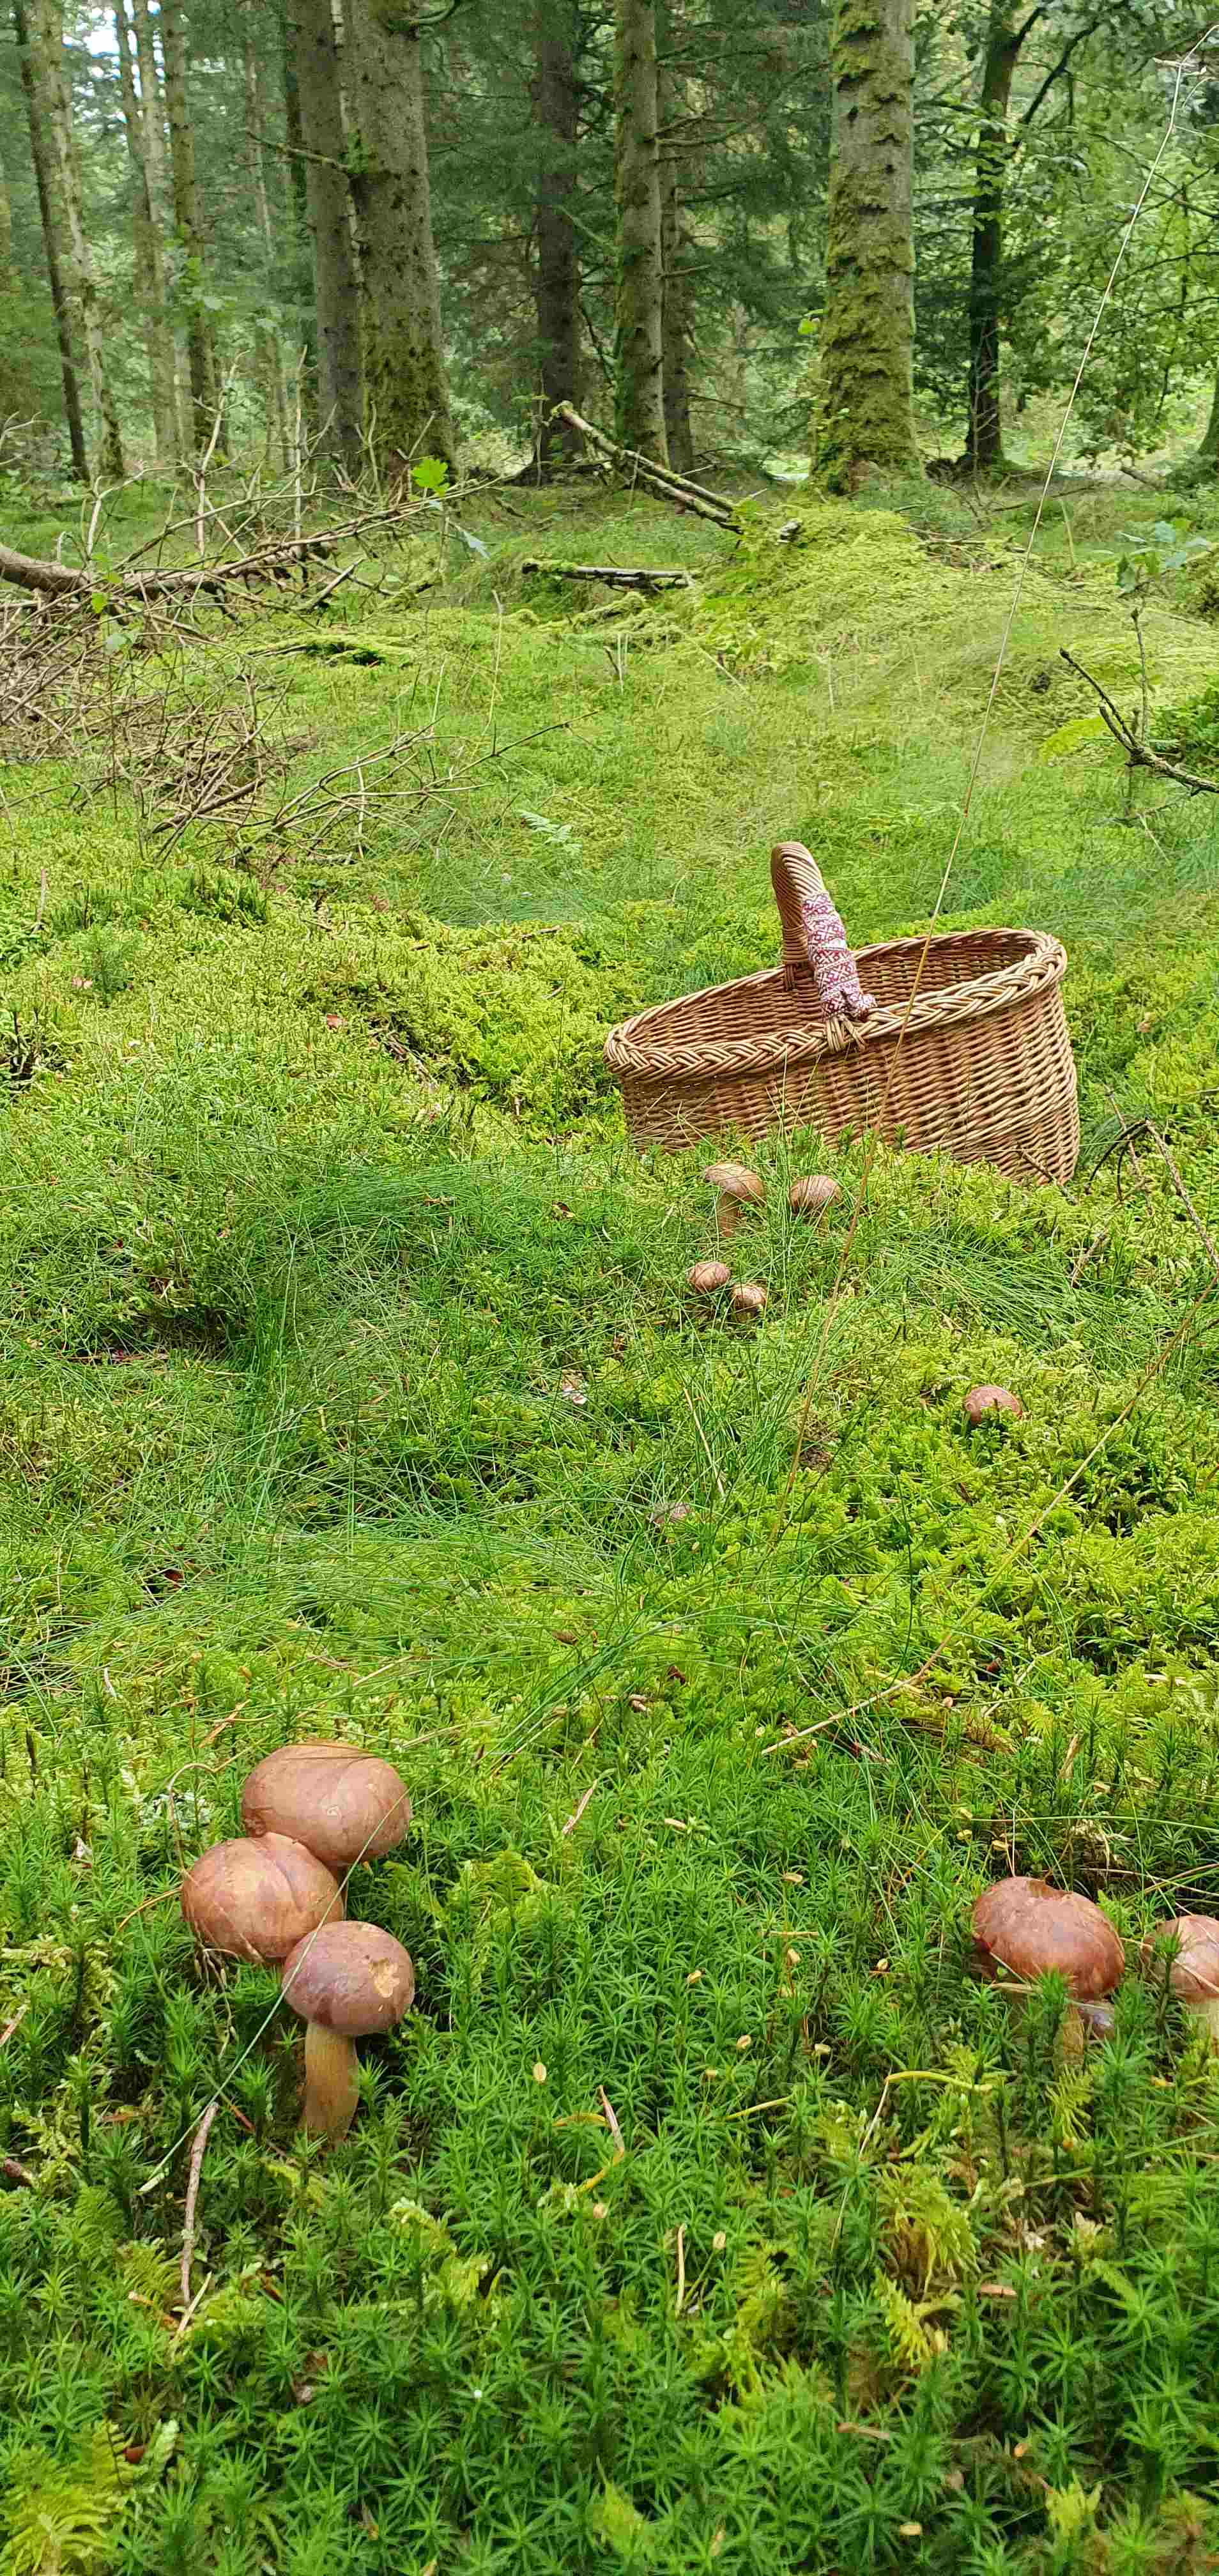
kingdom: Fungi
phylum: Basidiomycota
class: Agaricomycetes
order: Boletales
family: Boletaceae
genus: Imleria
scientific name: Imleria badia
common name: brunstokket rørhat
